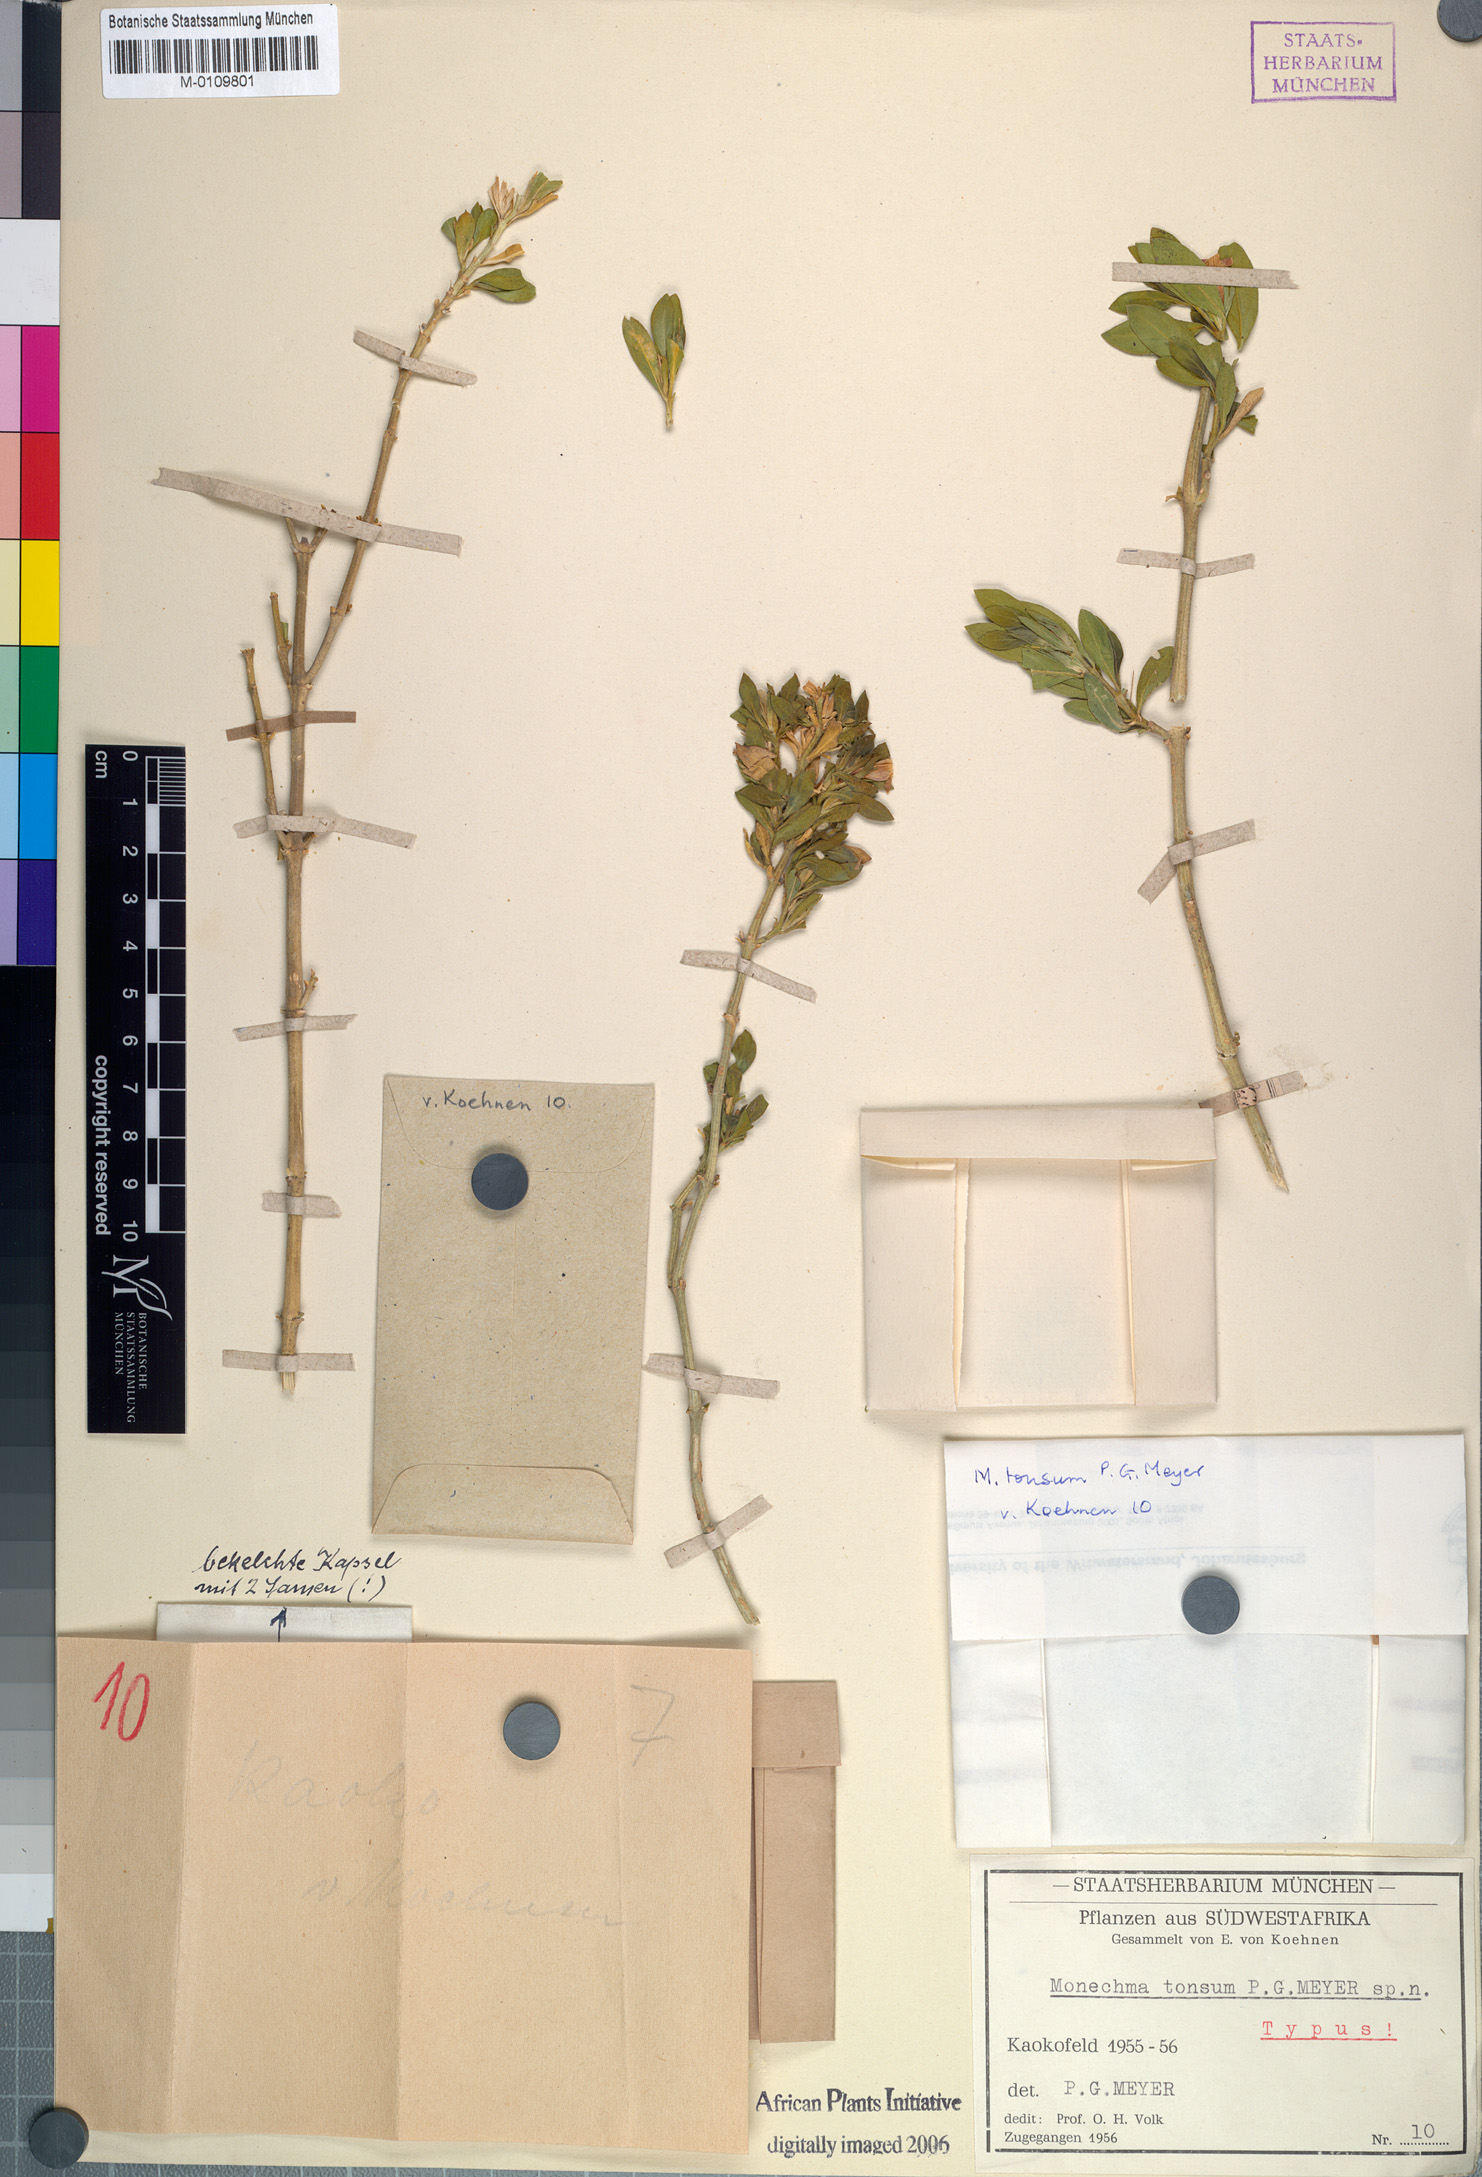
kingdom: Plantae
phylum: Tracheophyta
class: Magnoliopsida
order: Lamiales
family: Acanthaceae
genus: Monechma
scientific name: Monechma tonsum
